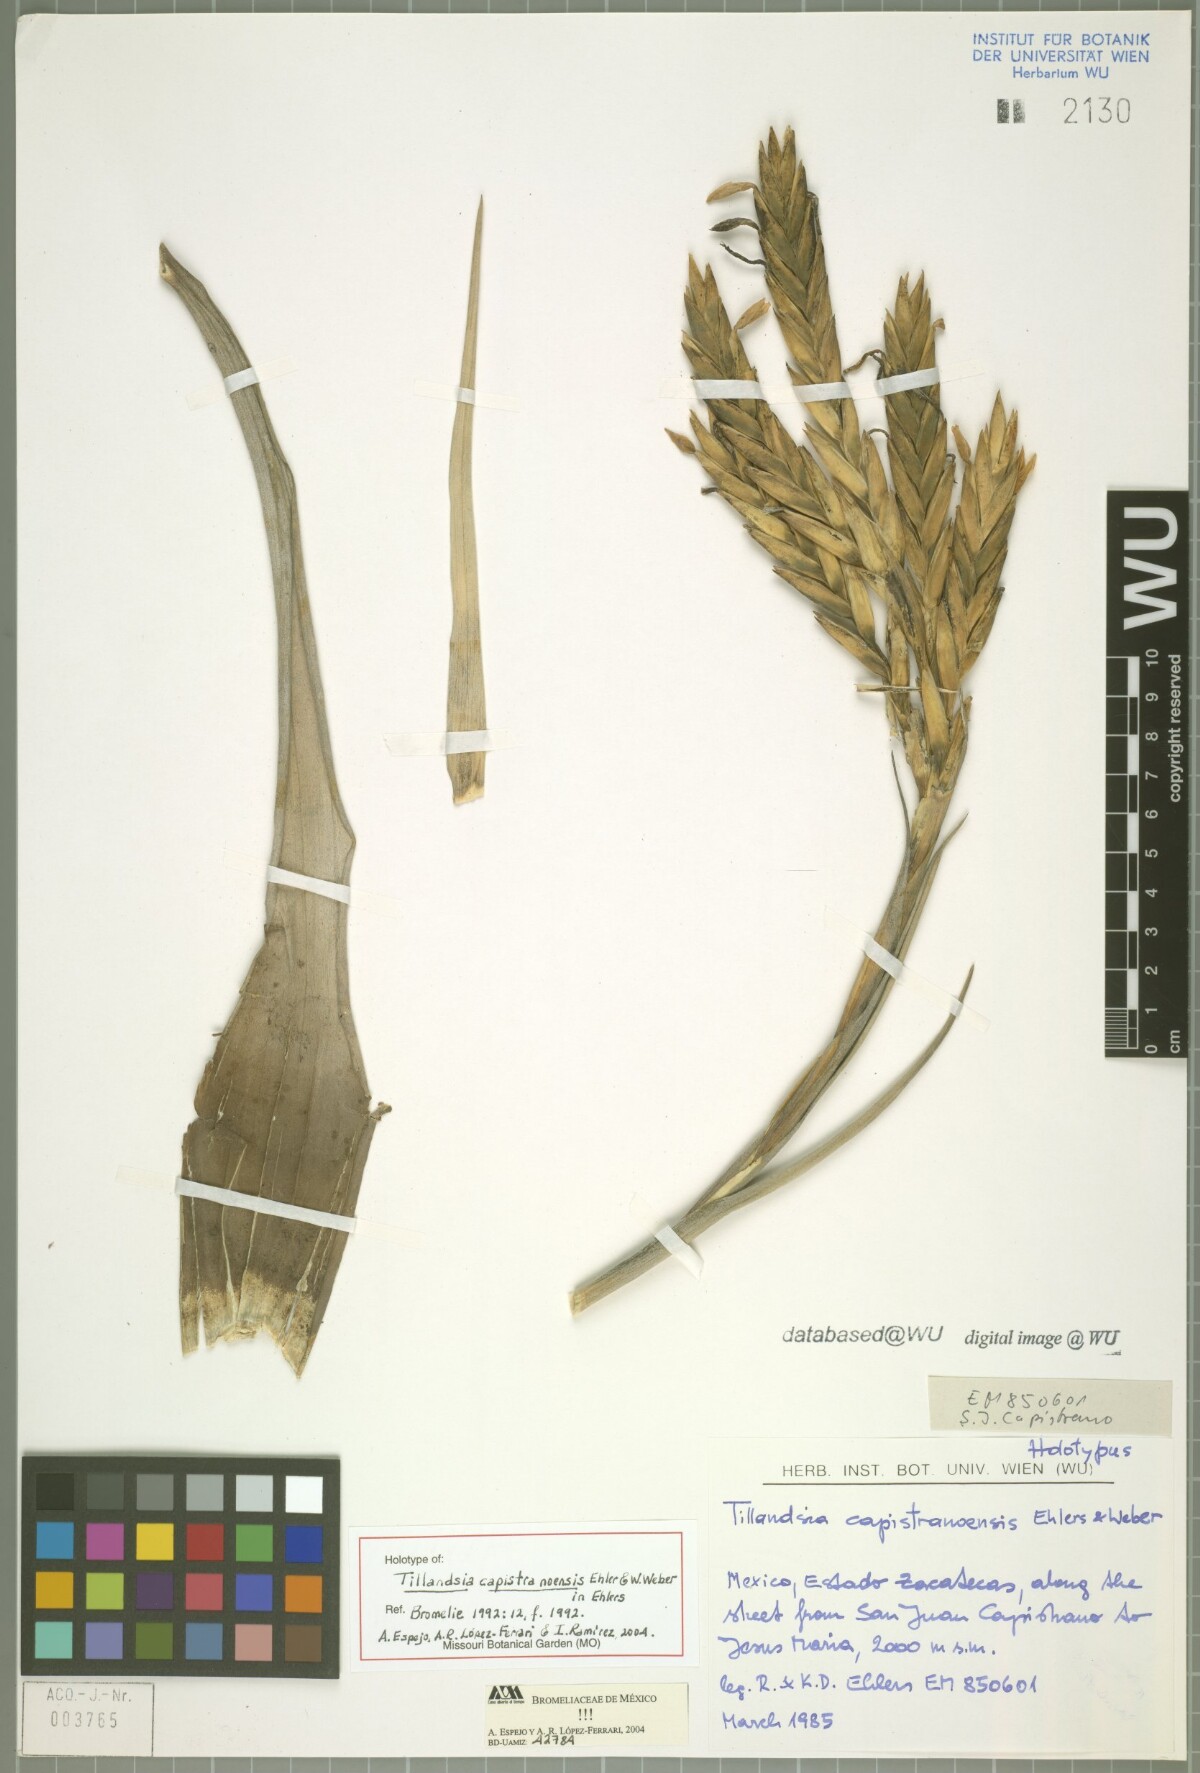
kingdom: Plantae
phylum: Tracheophyta
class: Liliopsida
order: Poales
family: Bromeliaceae
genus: Tillandsia
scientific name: Tillandsia capistranoensis
